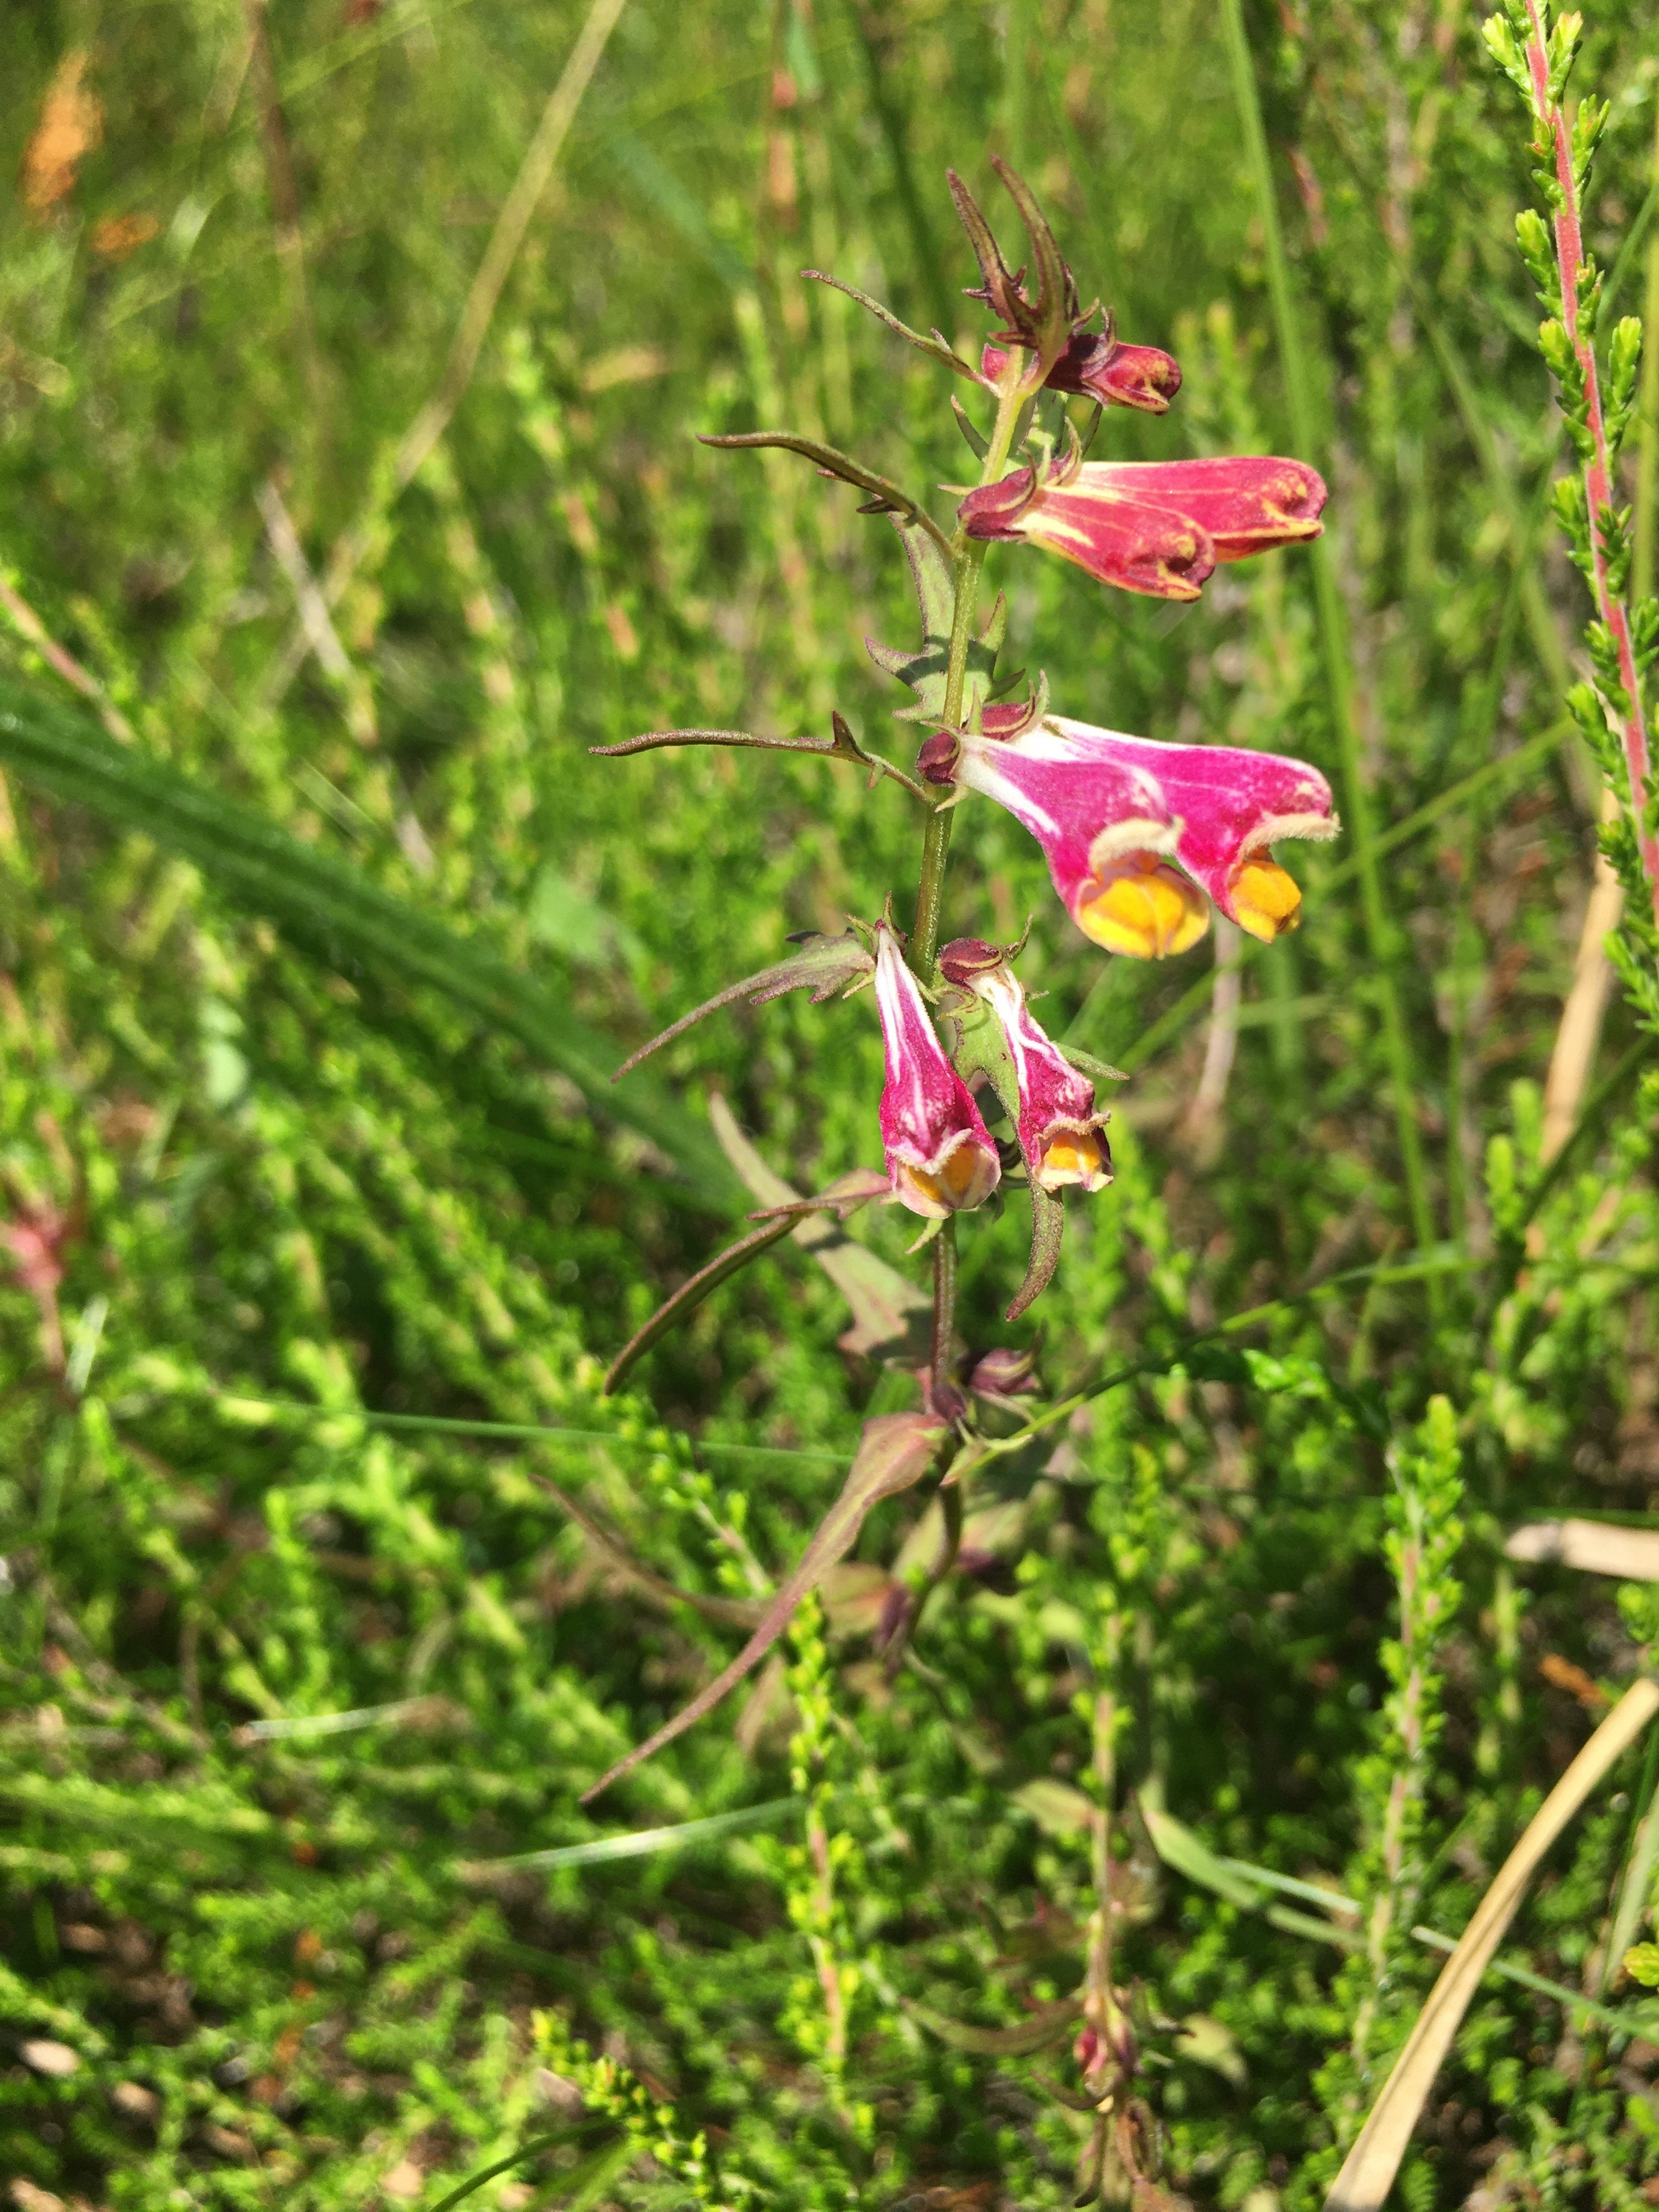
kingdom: Plantae
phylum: Tracheophyta
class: Magnoliopsida
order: Lamiales
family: Orobanchaceae
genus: Melampyrum
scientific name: Melampyrum pratense
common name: Almindelig kohvede
